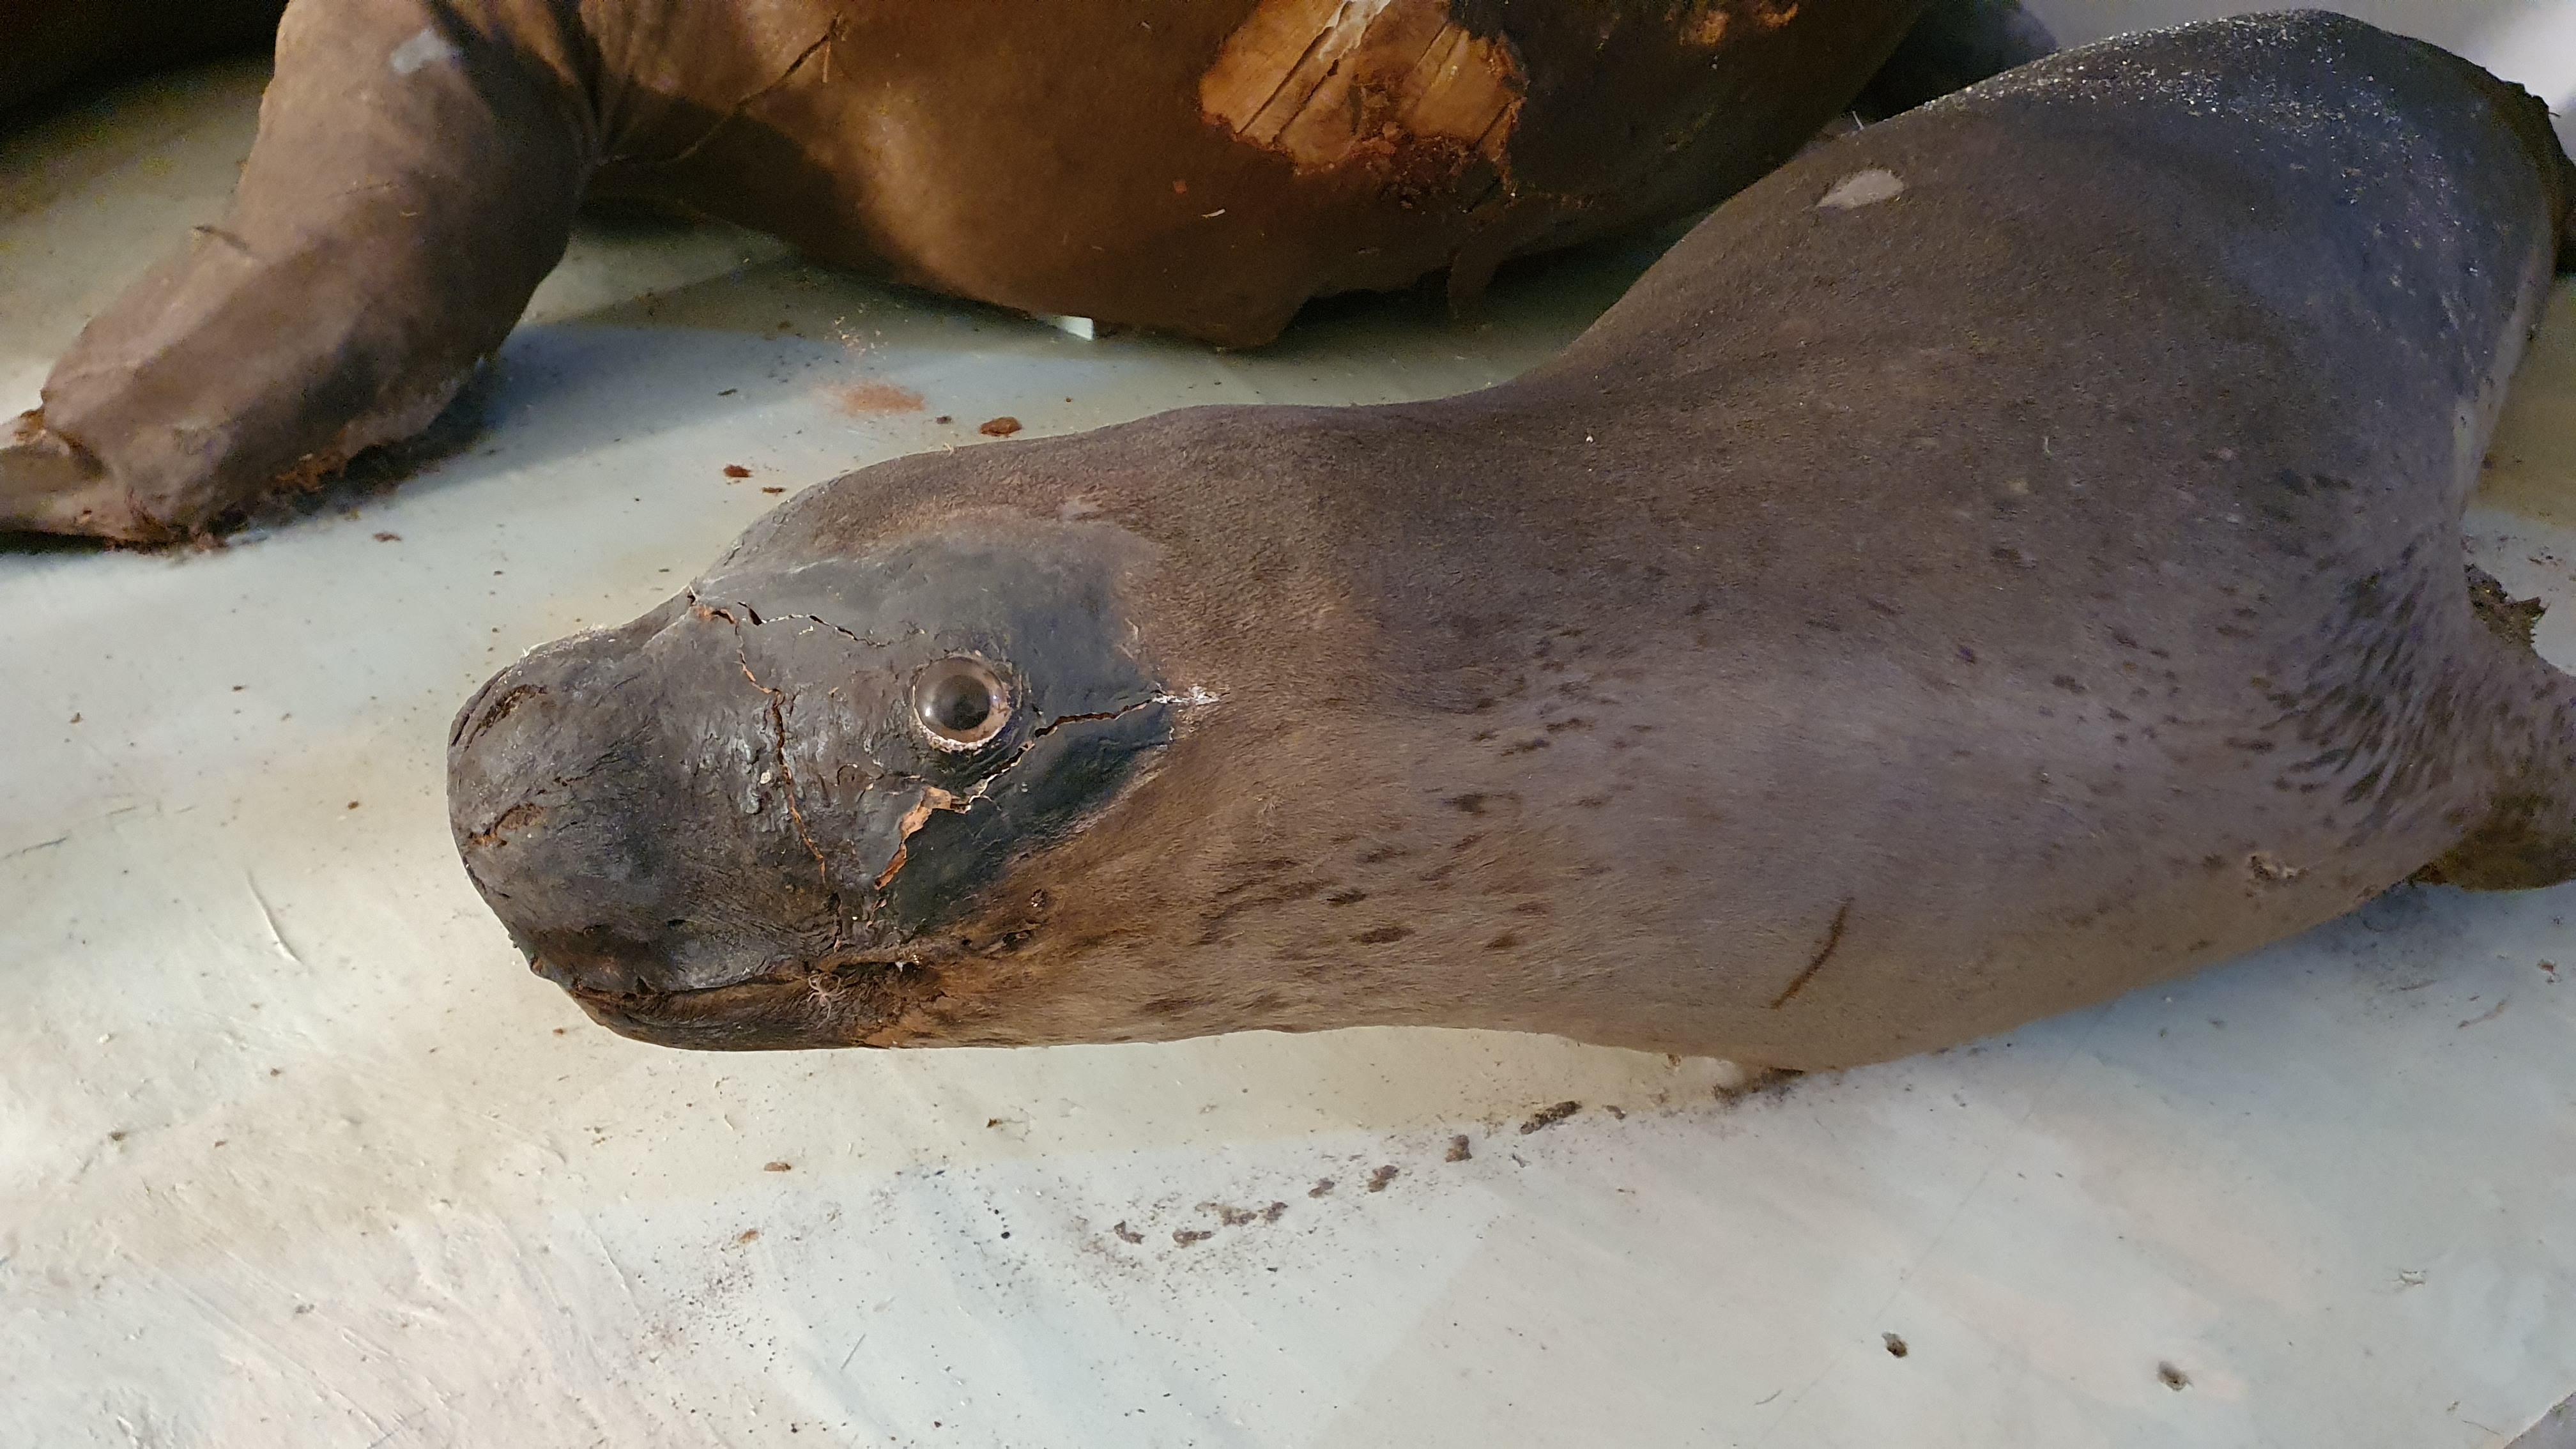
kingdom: Animalia
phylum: Chordata
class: Mammalia
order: Carnivora
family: Phocidae
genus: Hydrurga
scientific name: Hydrurga leptonyx
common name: Leopard seal
